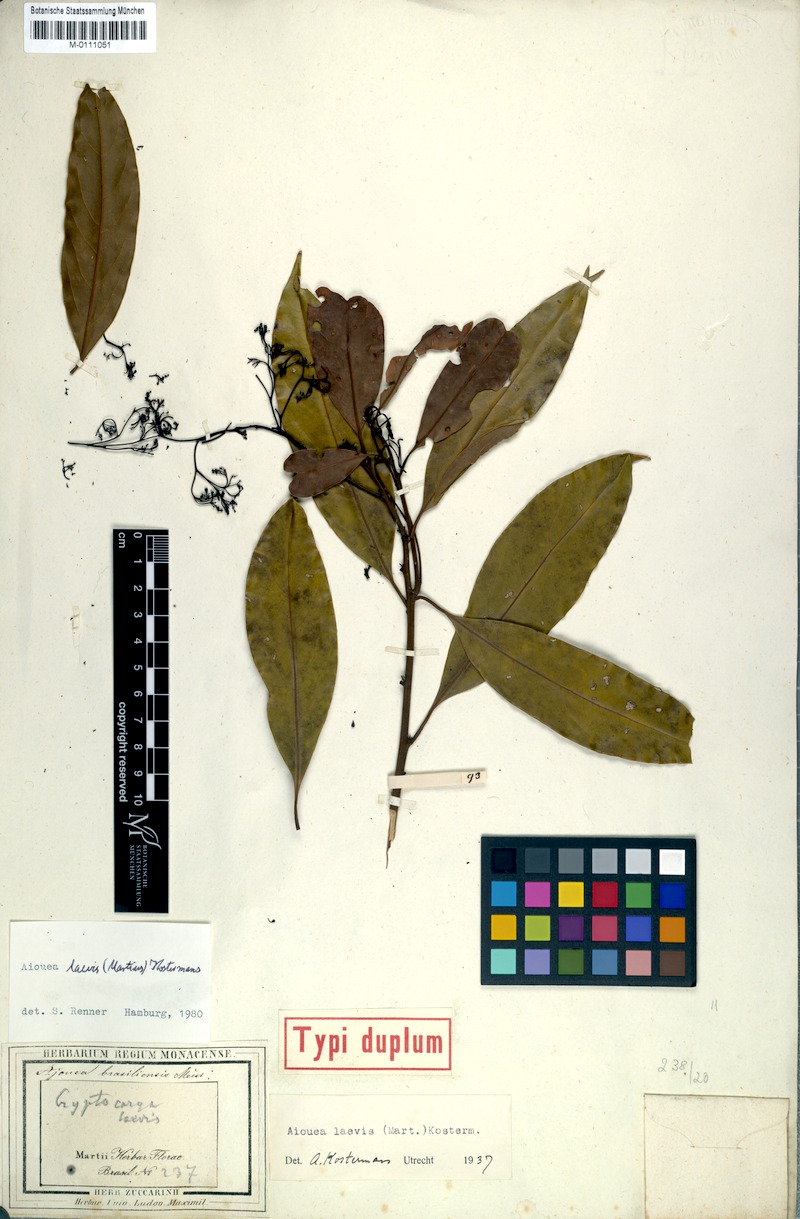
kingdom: Plantae
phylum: Tracheophyta
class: Magnoliopsida
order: Laurales
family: Lauraceae
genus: Aiouea
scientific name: Aiouea laevis
